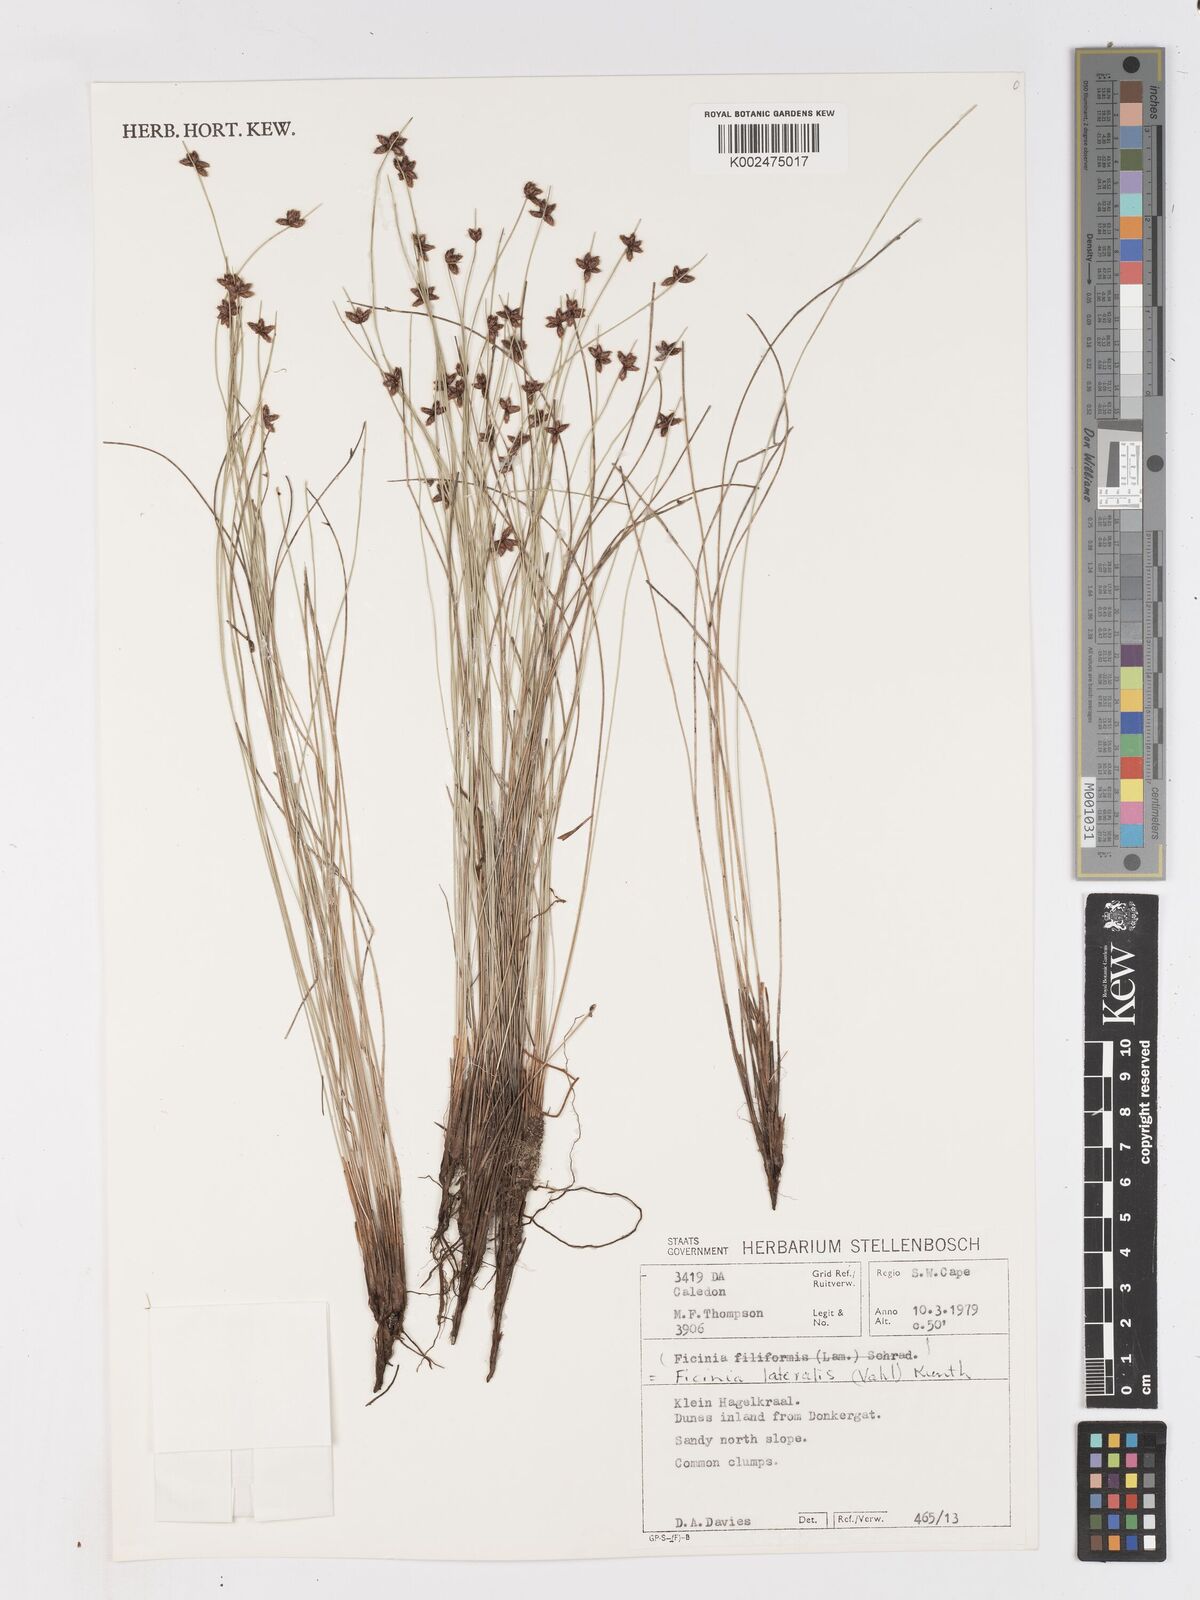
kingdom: Plantae
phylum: Tracheophyta
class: Liliopsida
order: Poales
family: Cyperaceae
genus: Ficinia
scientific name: Ficinia lateralis
